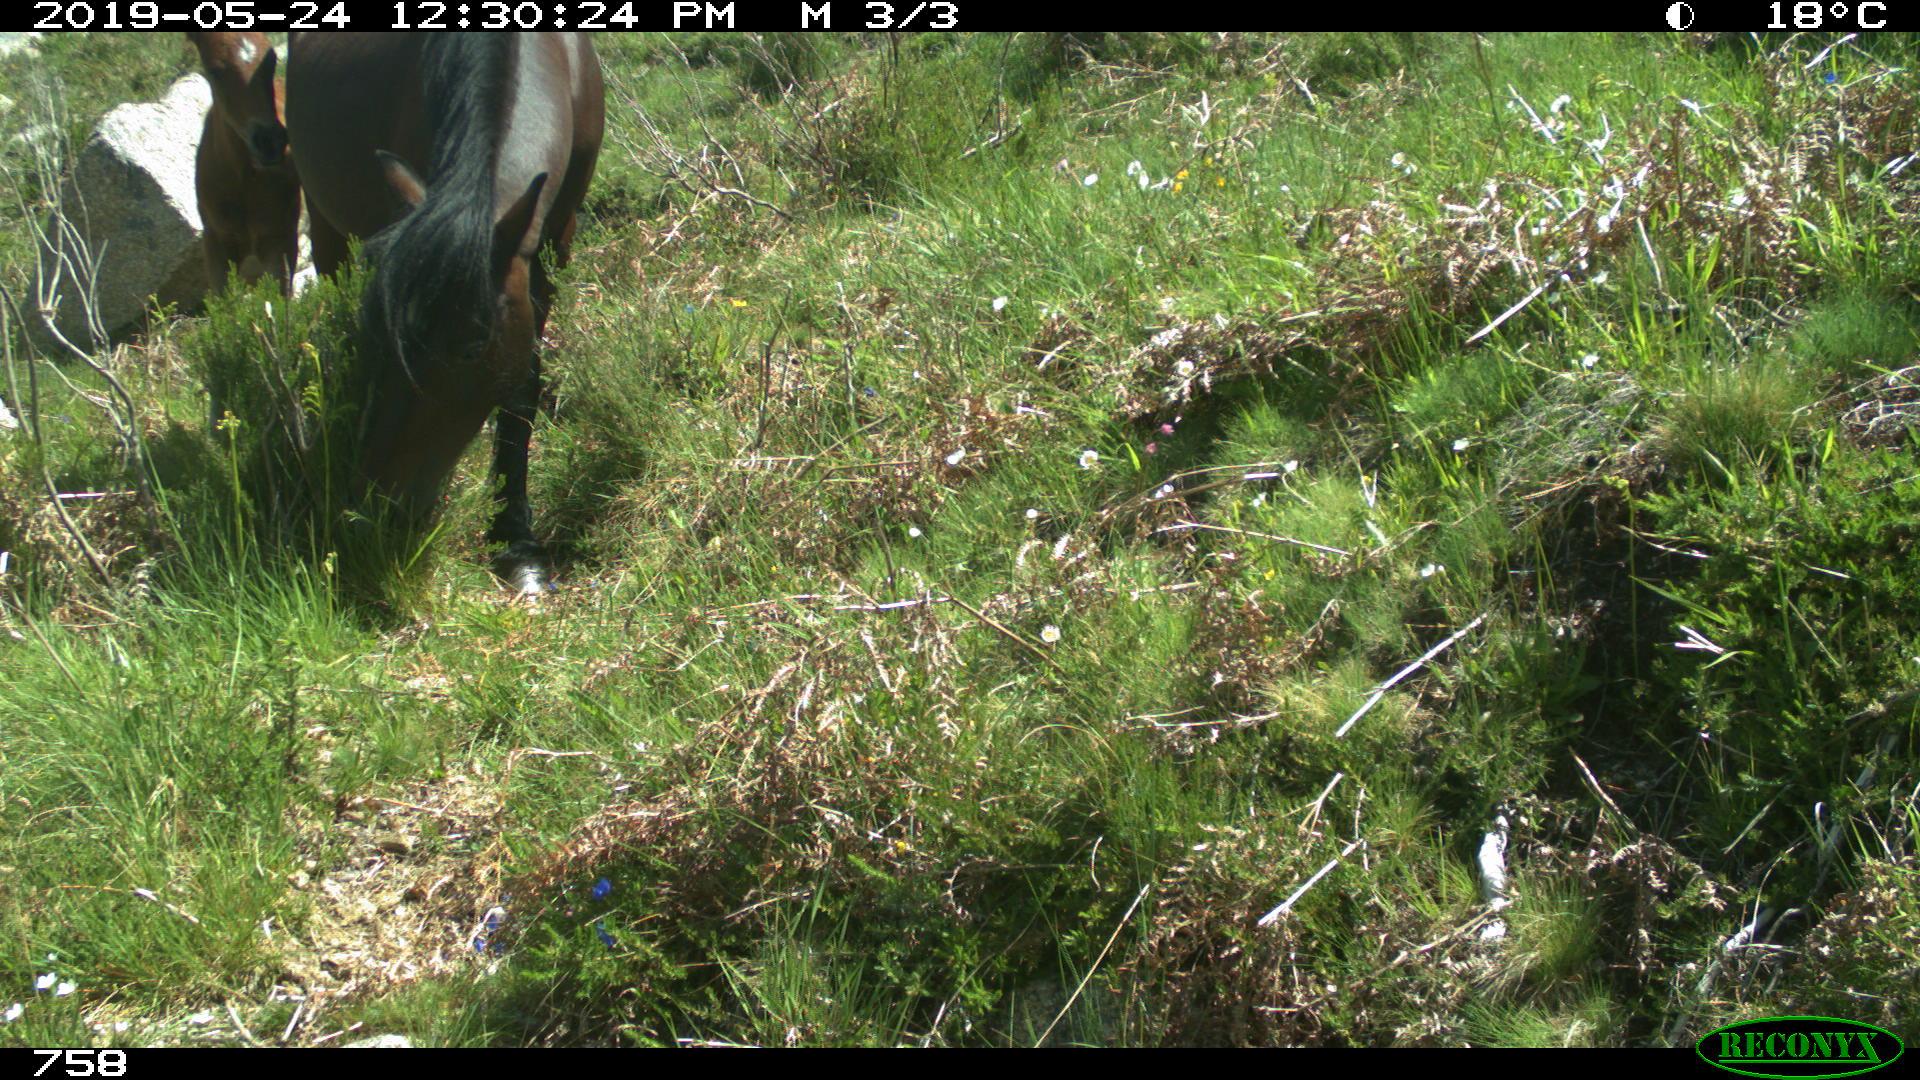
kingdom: Animalia
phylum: Chordata
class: Mammalia
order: Perissodactyla
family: Equidae
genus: Equus
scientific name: Equus caballus
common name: Horse
